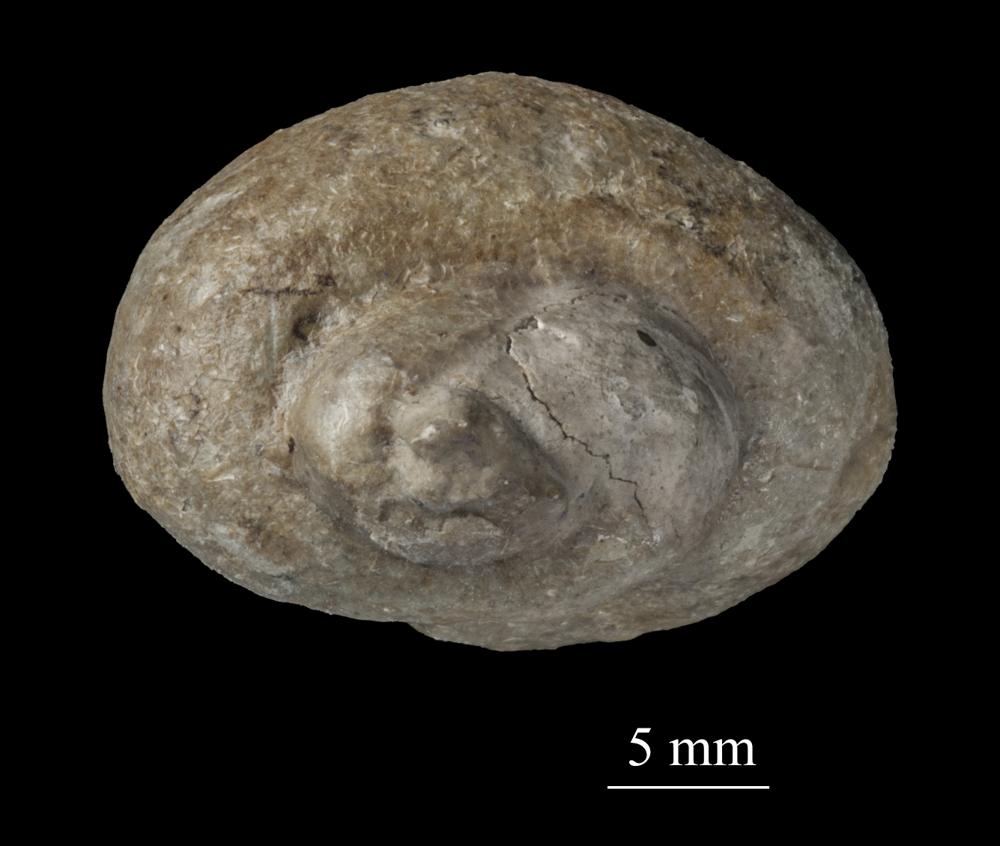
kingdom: Animalia
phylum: Mollusca
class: Gastropoda
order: Trochida
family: Turbinidae
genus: Turbo
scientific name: Turbo
